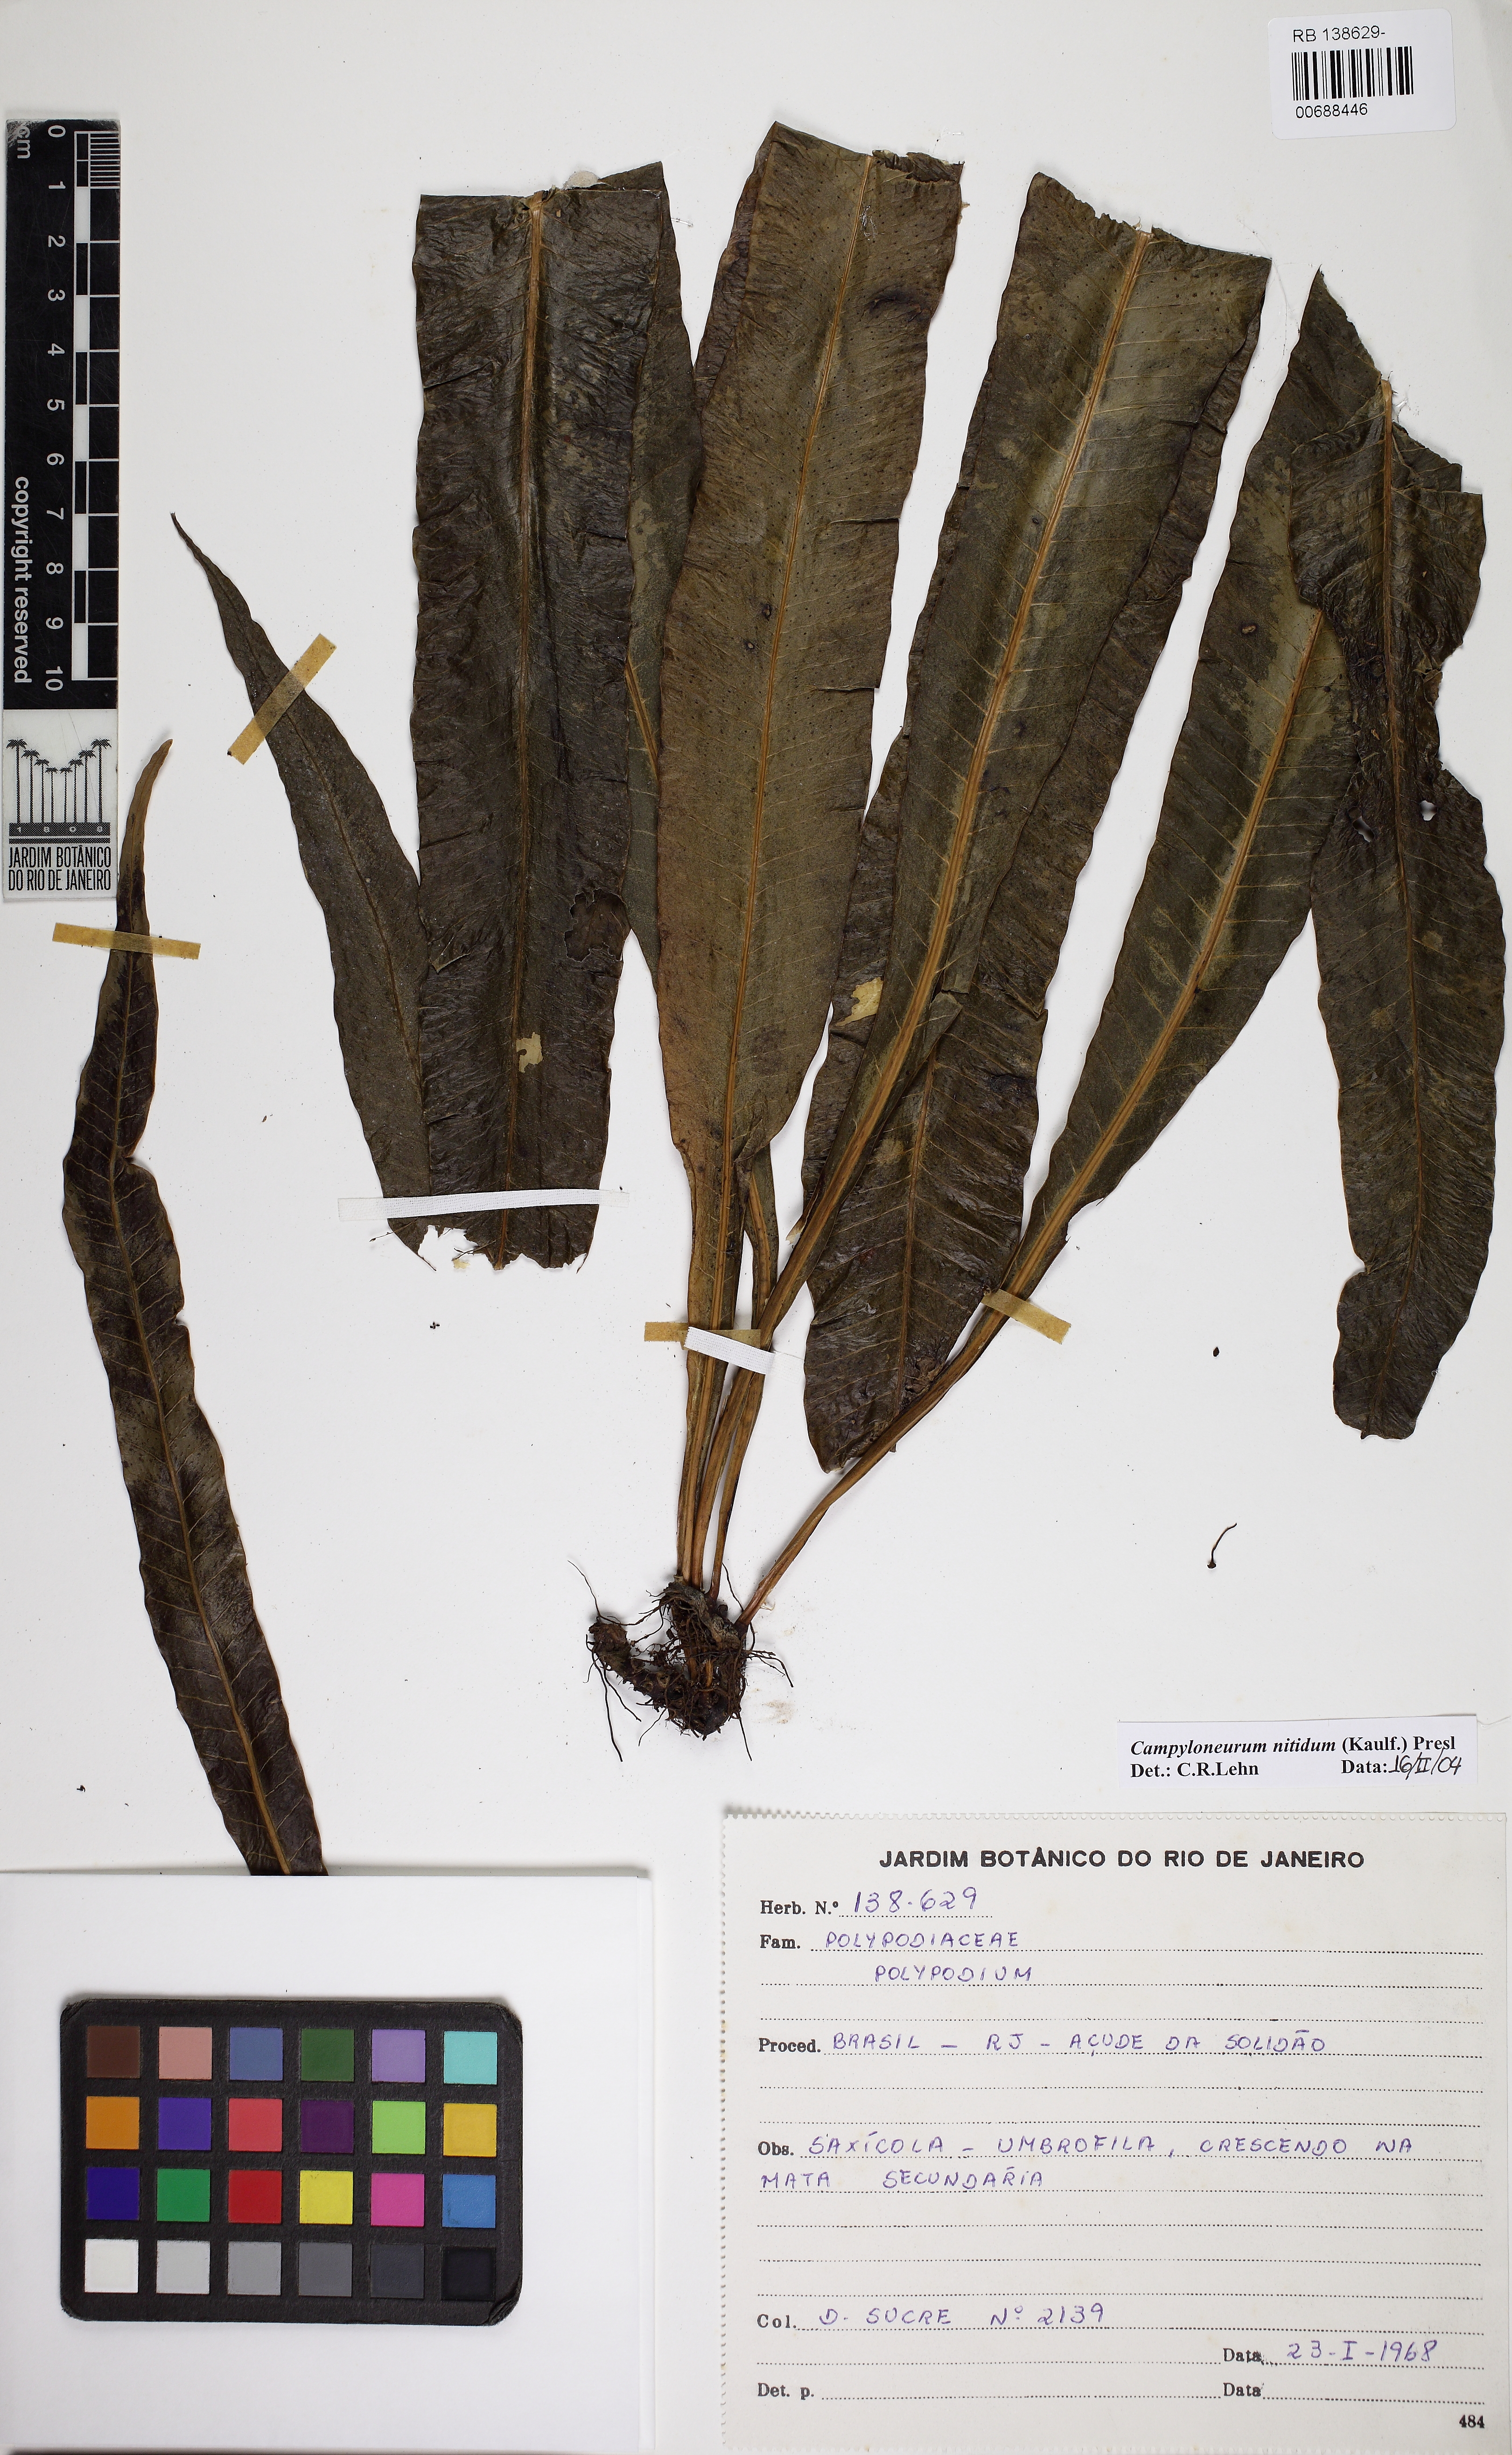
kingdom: Plantae
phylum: Tracheophyta
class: Polypodiopsida
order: Polypodiales
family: Polypodiaceae
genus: Campyloneurum
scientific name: Campyloneurum nitidum
